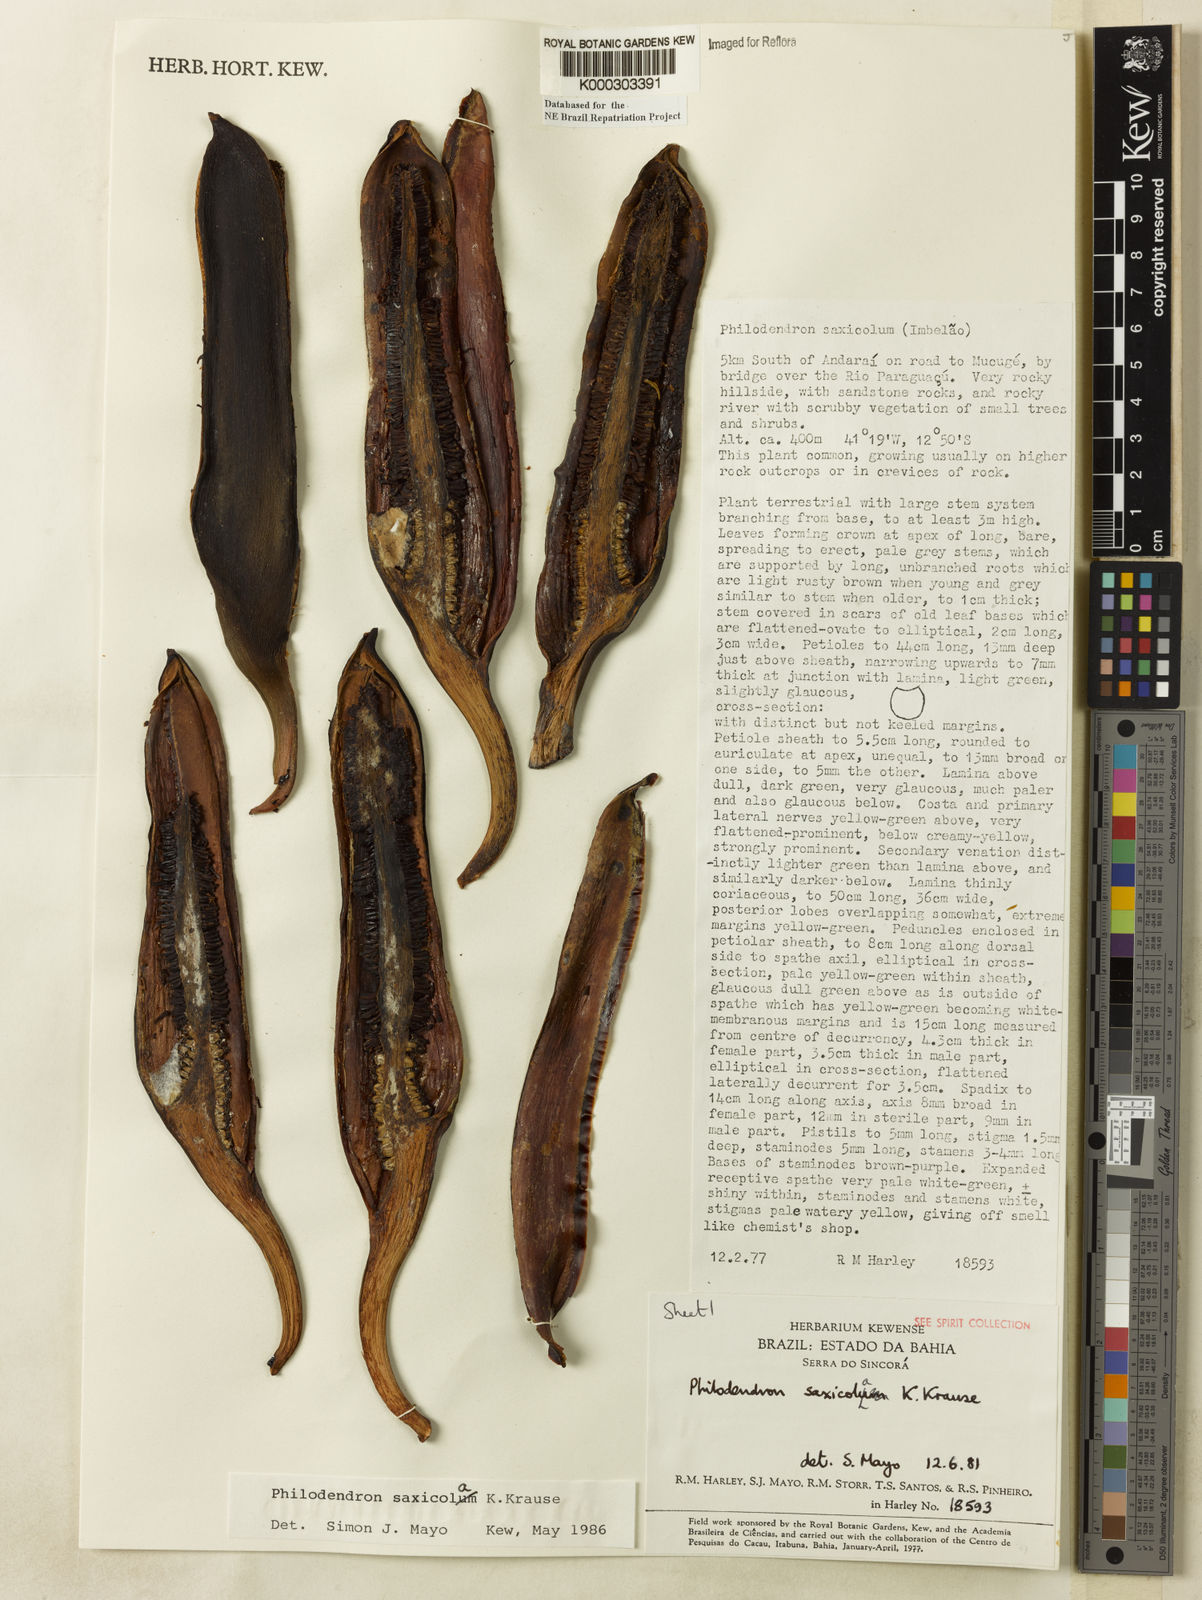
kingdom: Plantae
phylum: Tracheophyta
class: Liliopsida
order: Alismatales
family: Araceae
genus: Thaumatophyllum
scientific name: Thaumatophyllum saxicola
